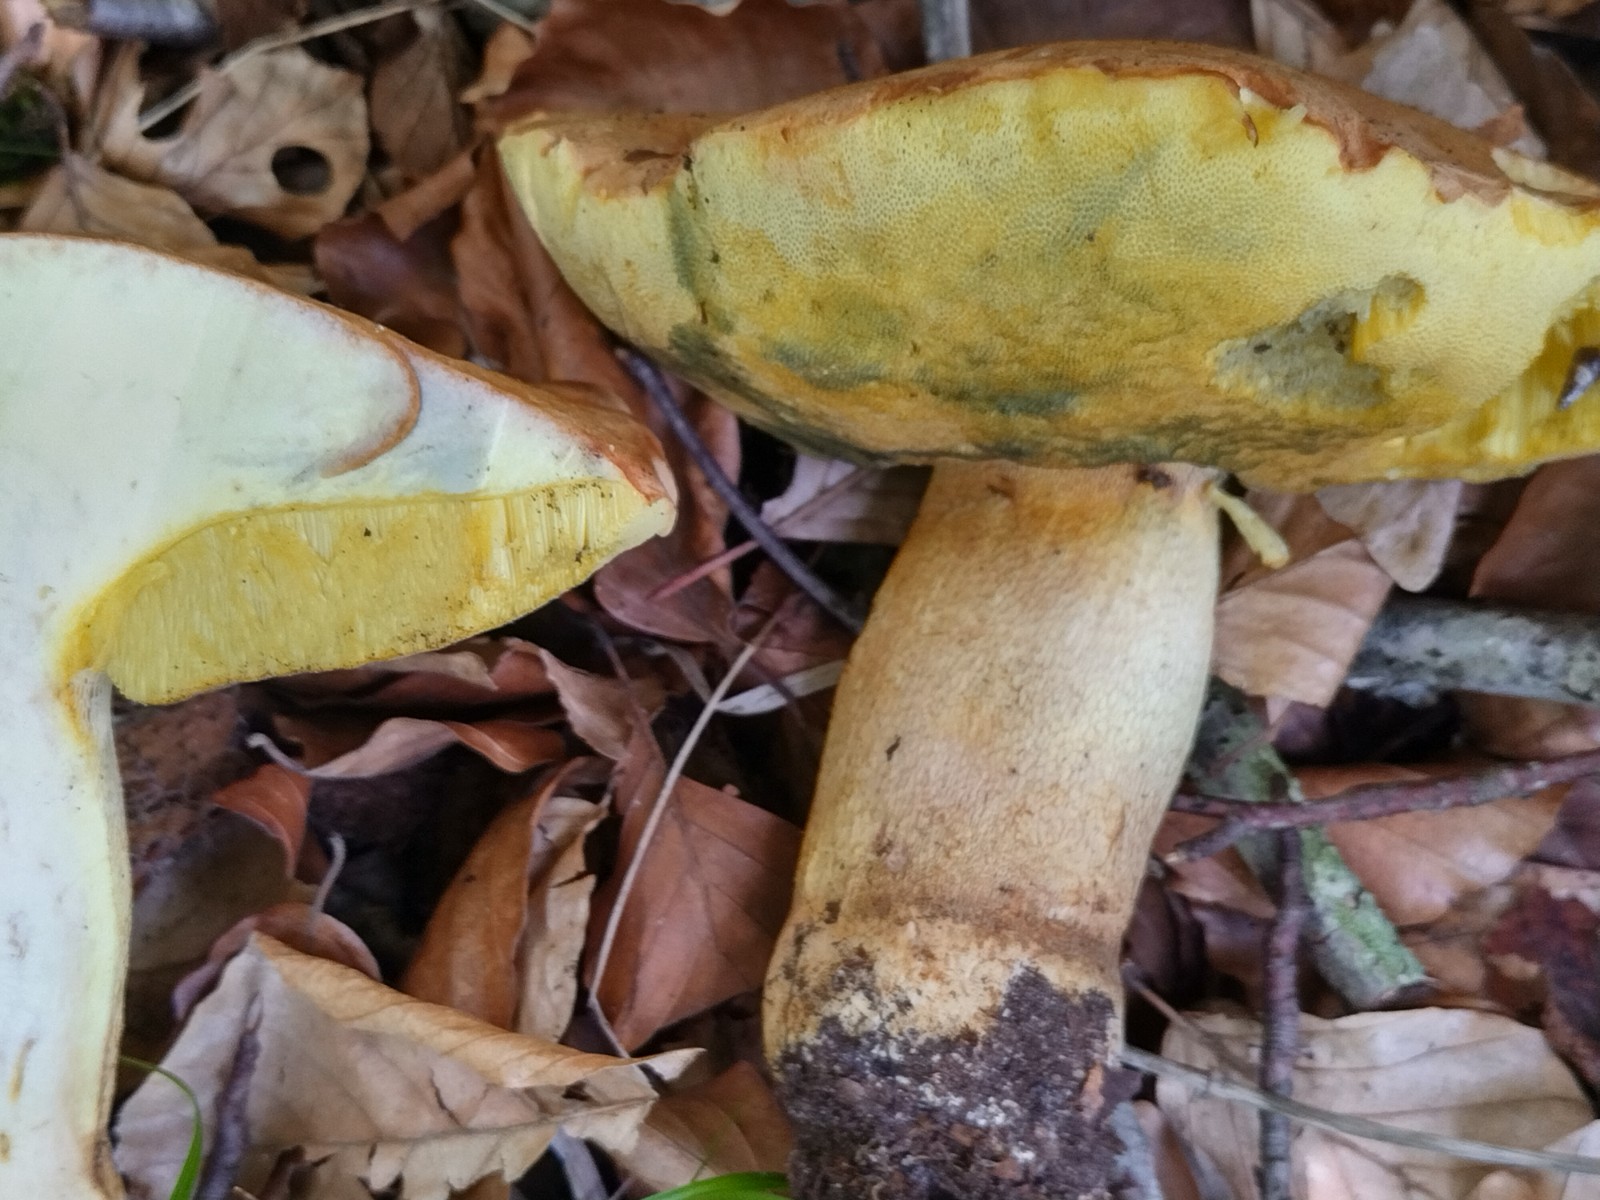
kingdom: Fungi
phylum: Basidiomycota
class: Agaricomycetes
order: Boletales
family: Boletaceae
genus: Butyriboletus
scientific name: Butyriboletus appendiculatus
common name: tenstokket rørhat
